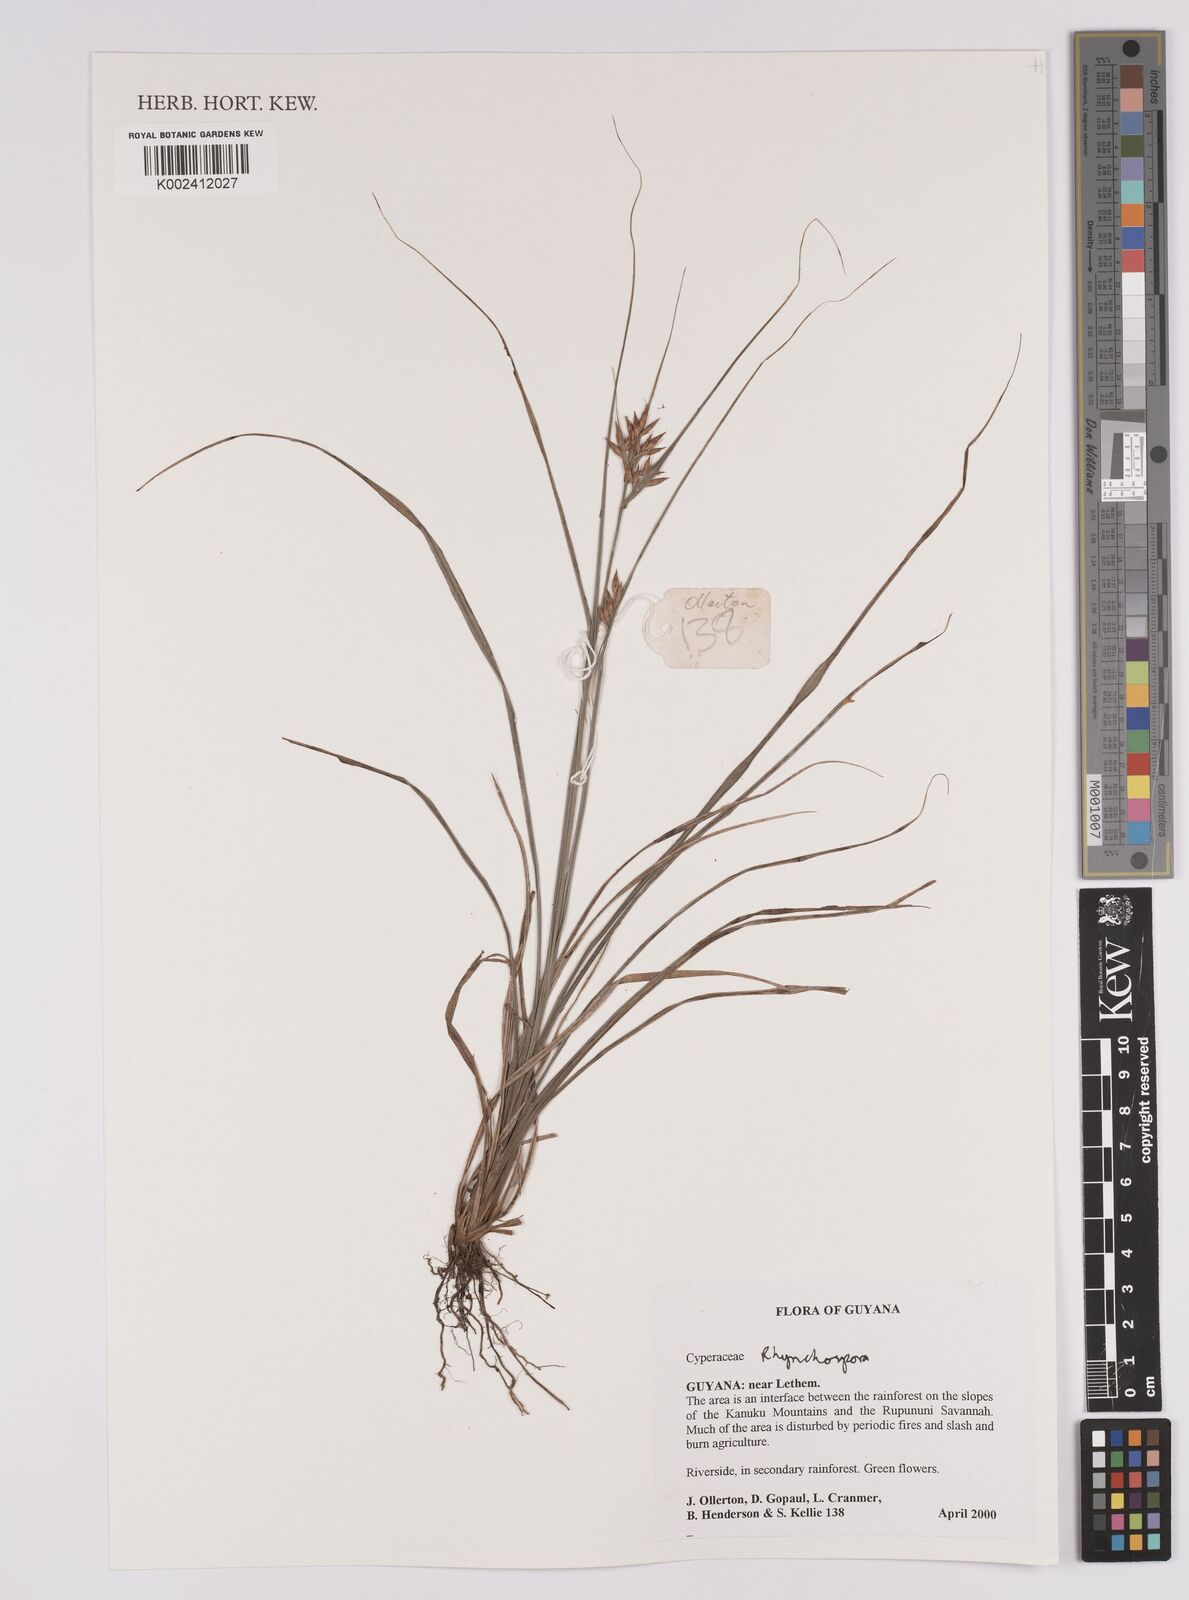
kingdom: Plantae
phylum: Tracheophyta
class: Liliopsida
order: Poales
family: Cyperaceae
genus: Rhynchospora
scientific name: Rhynchospora
